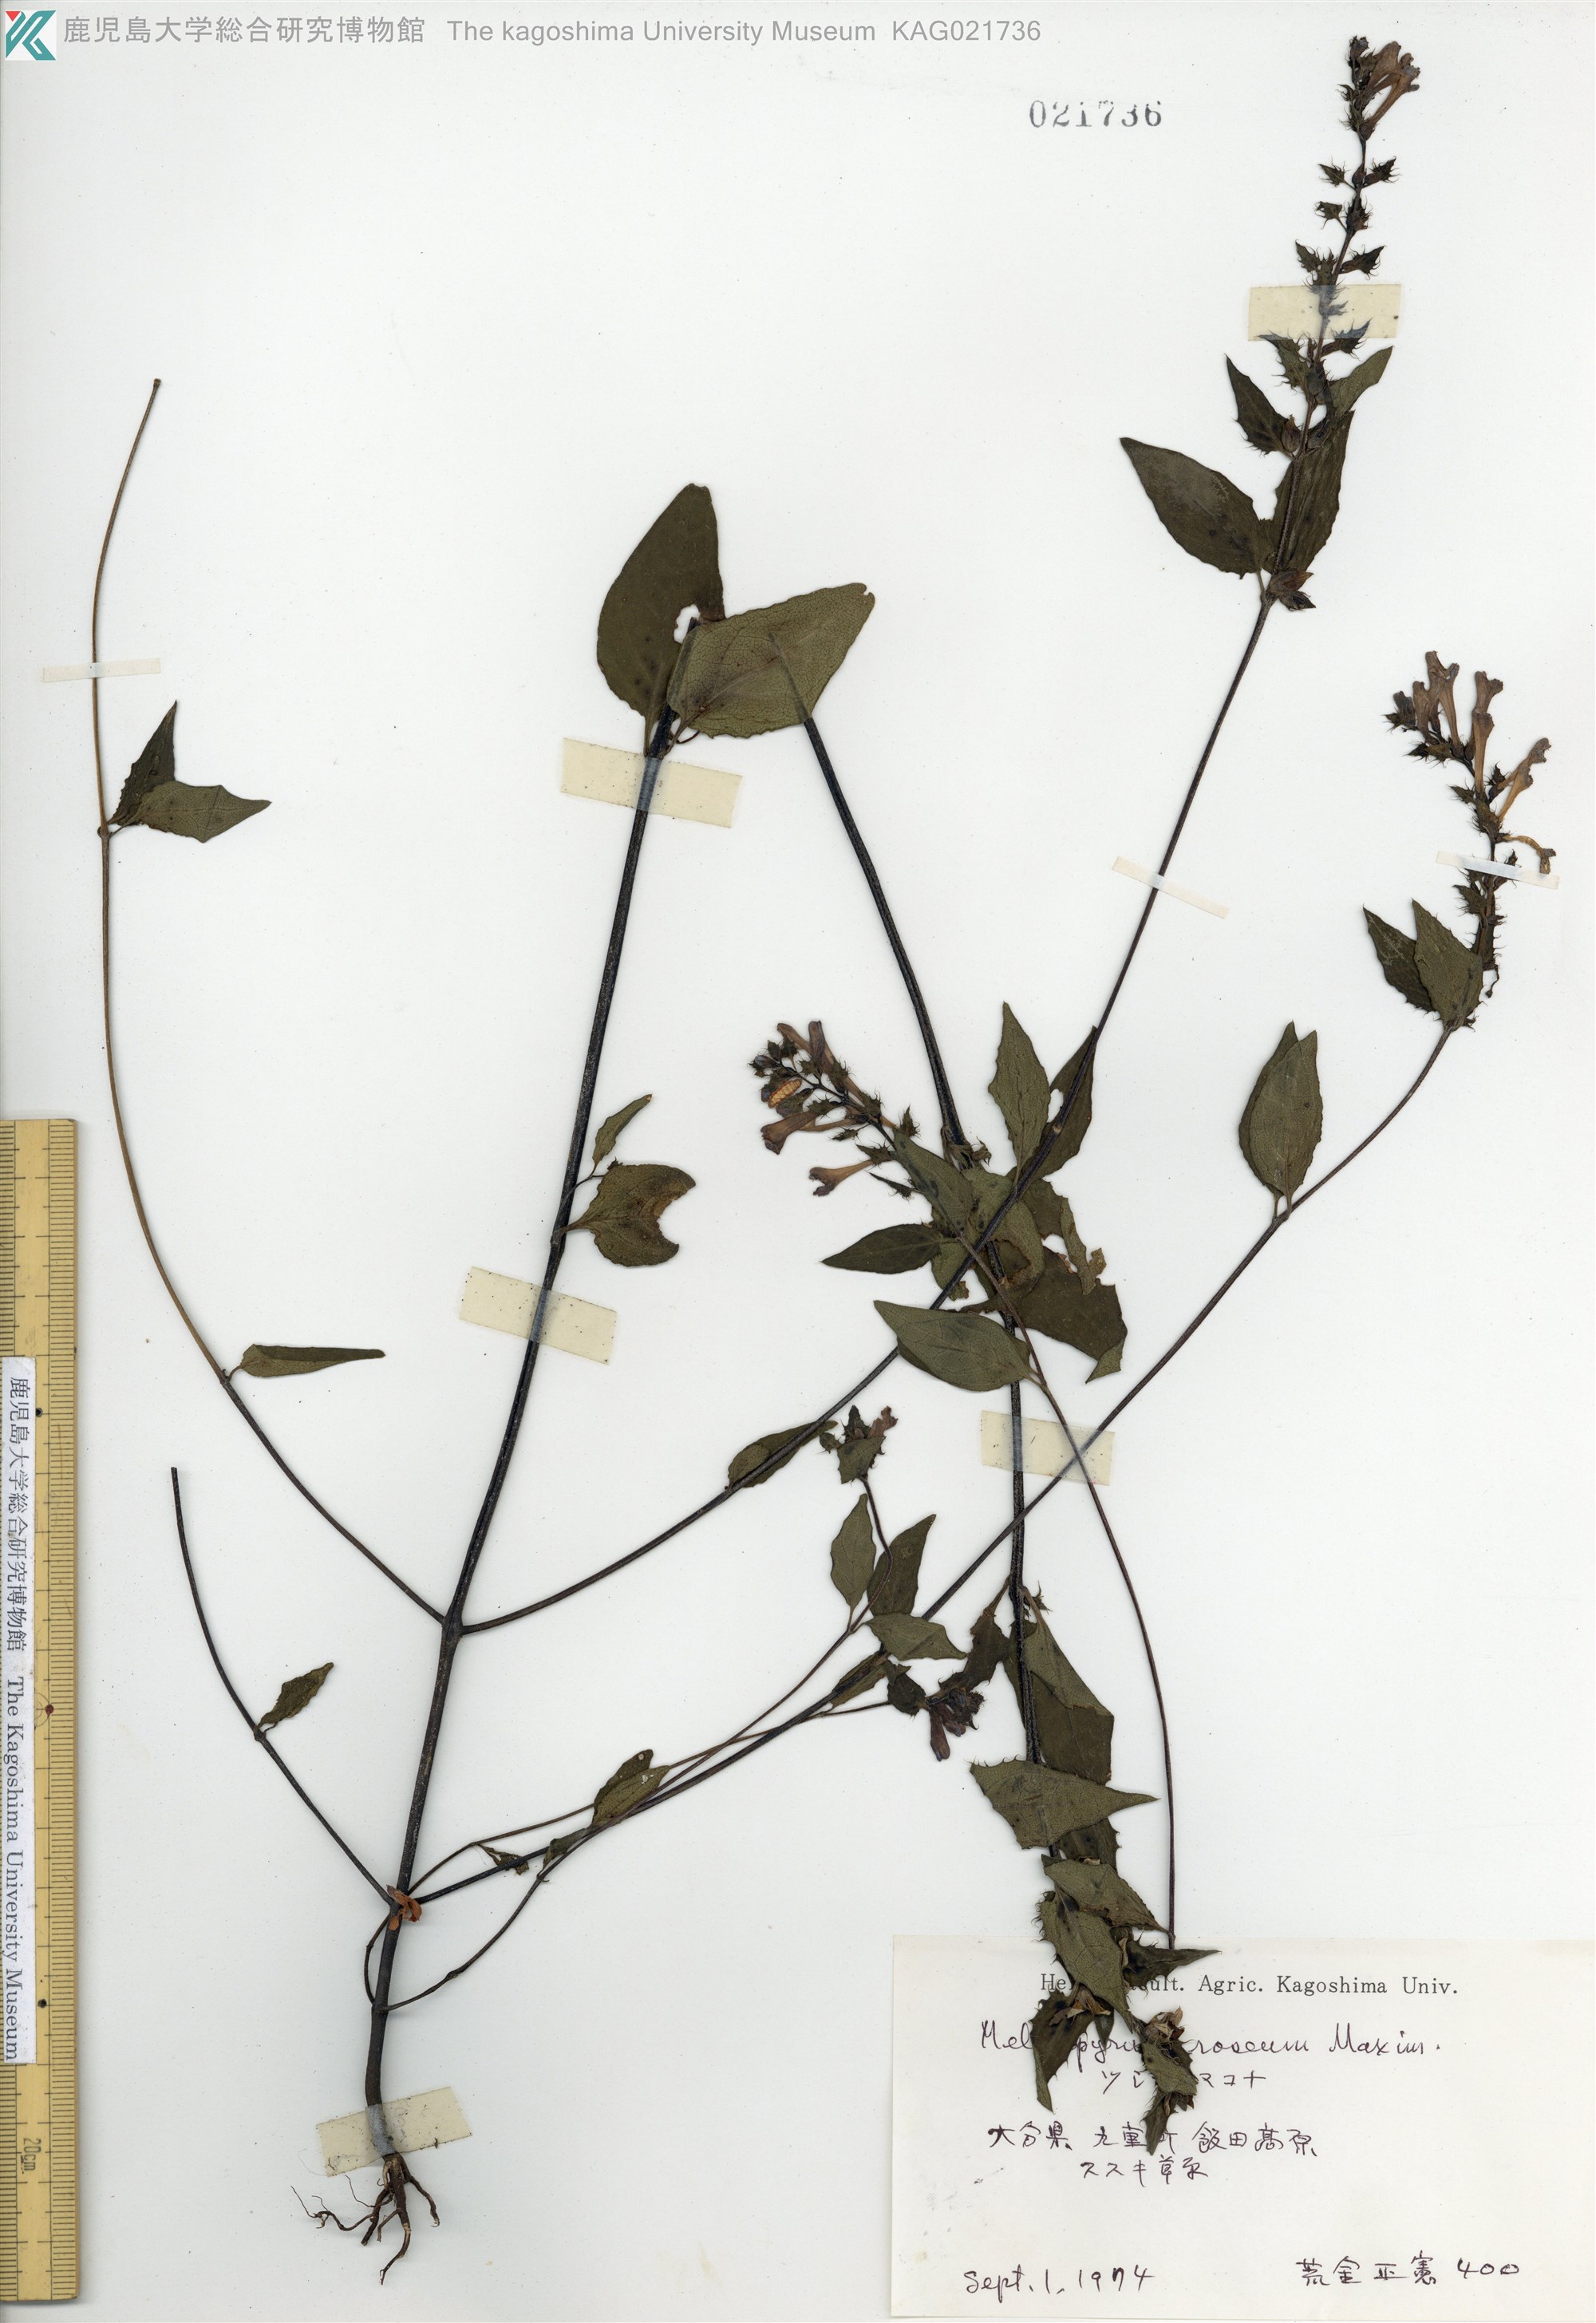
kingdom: Plantae
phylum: Tracheophyta
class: Magnoliopsida
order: Lamiales
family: Orobanchaceae
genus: Melampyrum
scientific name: Melampyrum roseum
